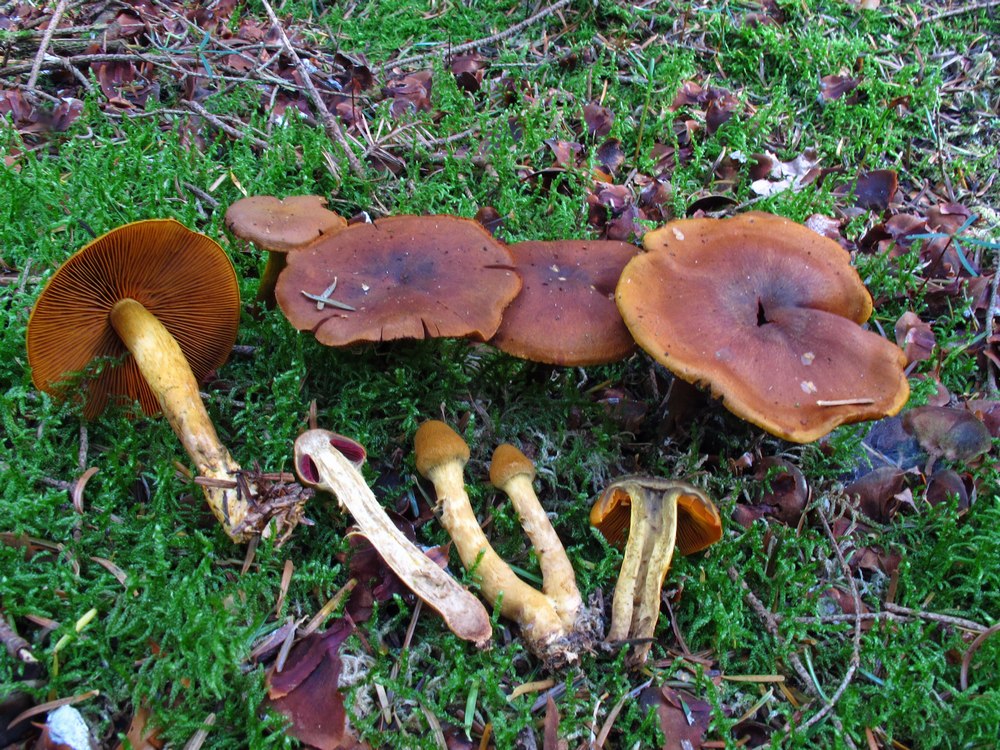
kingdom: Fungi
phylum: Basidiomycota
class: Agaricomycetes
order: Agaricales
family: Cortinariaceae
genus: Cortinarius
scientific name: Cortinarius malicorius
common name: grønkødet slørhat
